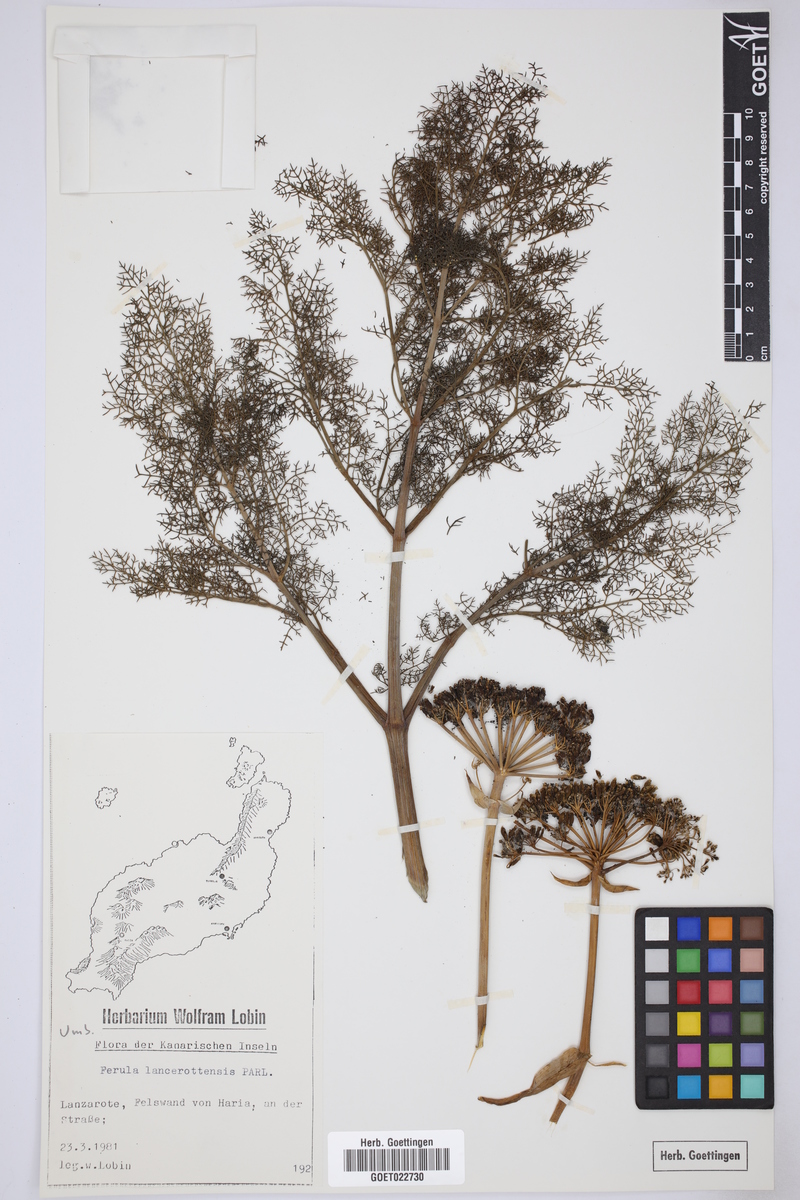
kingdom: Plantae
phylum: Tracheophyta
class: Magnoliopsida
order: Apiales
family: Apiaceae
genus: Ferula
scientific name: Ferula lancerotensis
